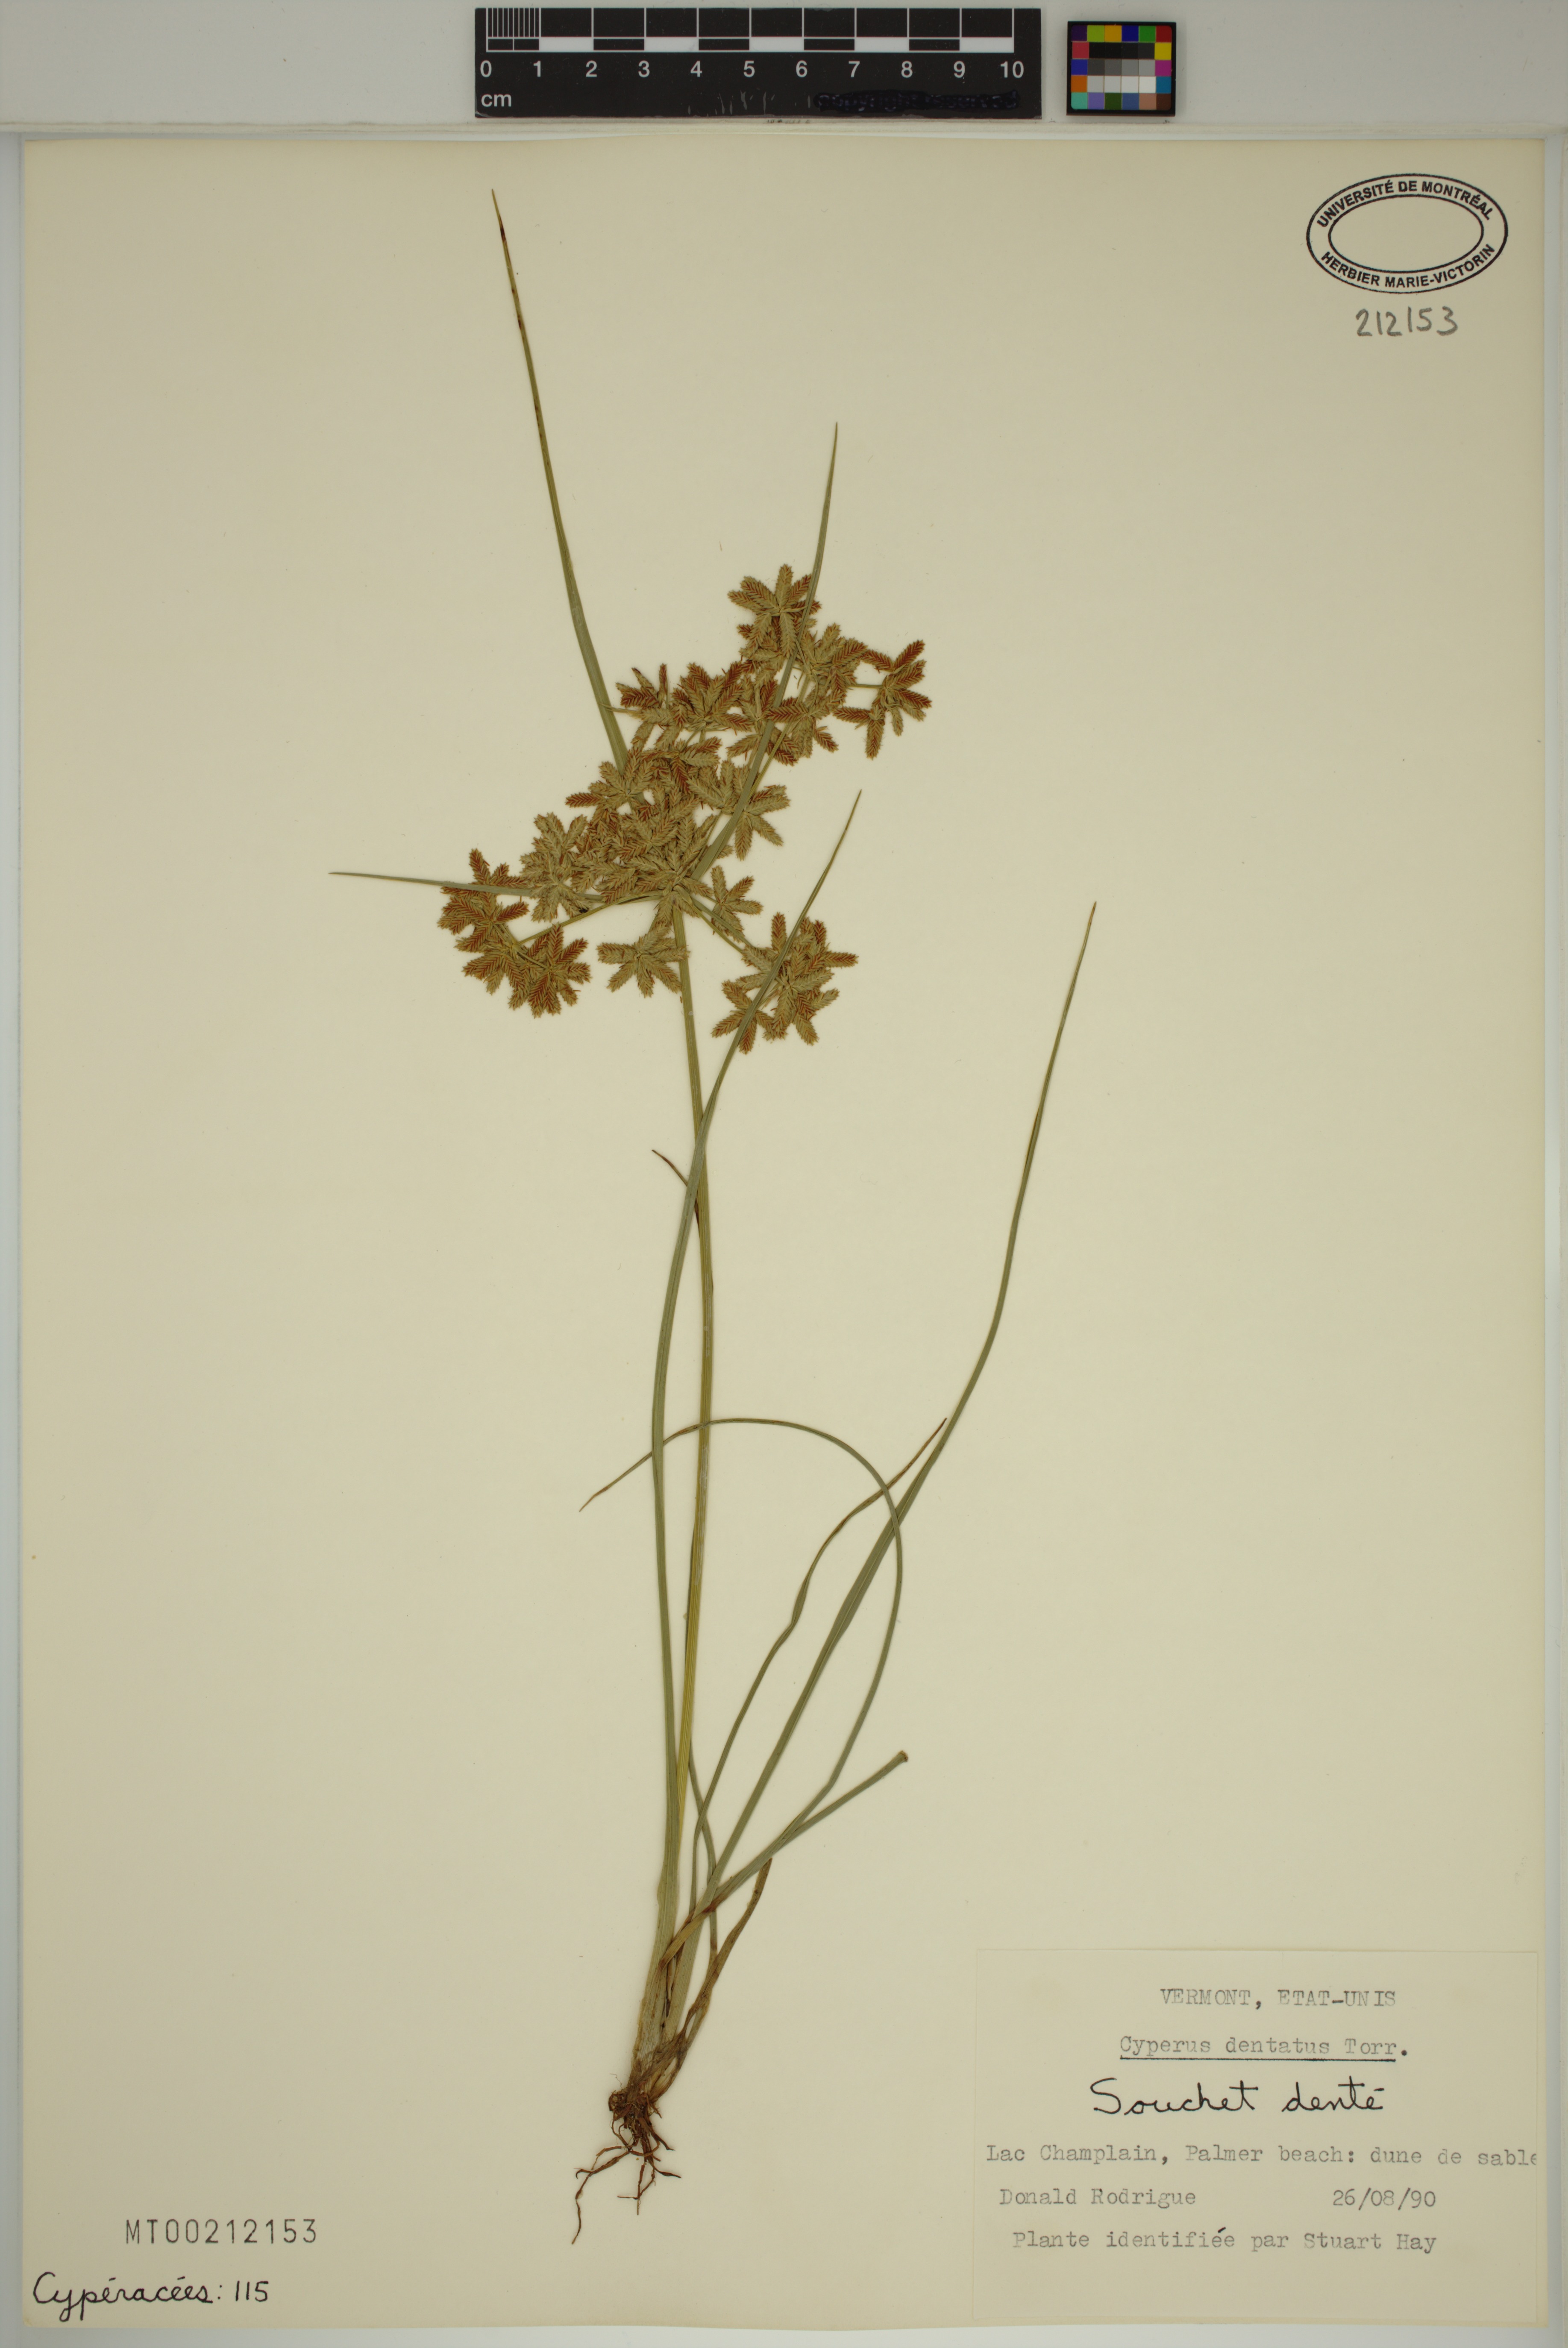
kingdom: Plantae
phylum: Tracheophyta
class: Liliopsida
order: Poales
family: Cyperaceae
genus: Cyperus
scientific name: Cyperus dentatus
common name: Dentate umbrella sedge
